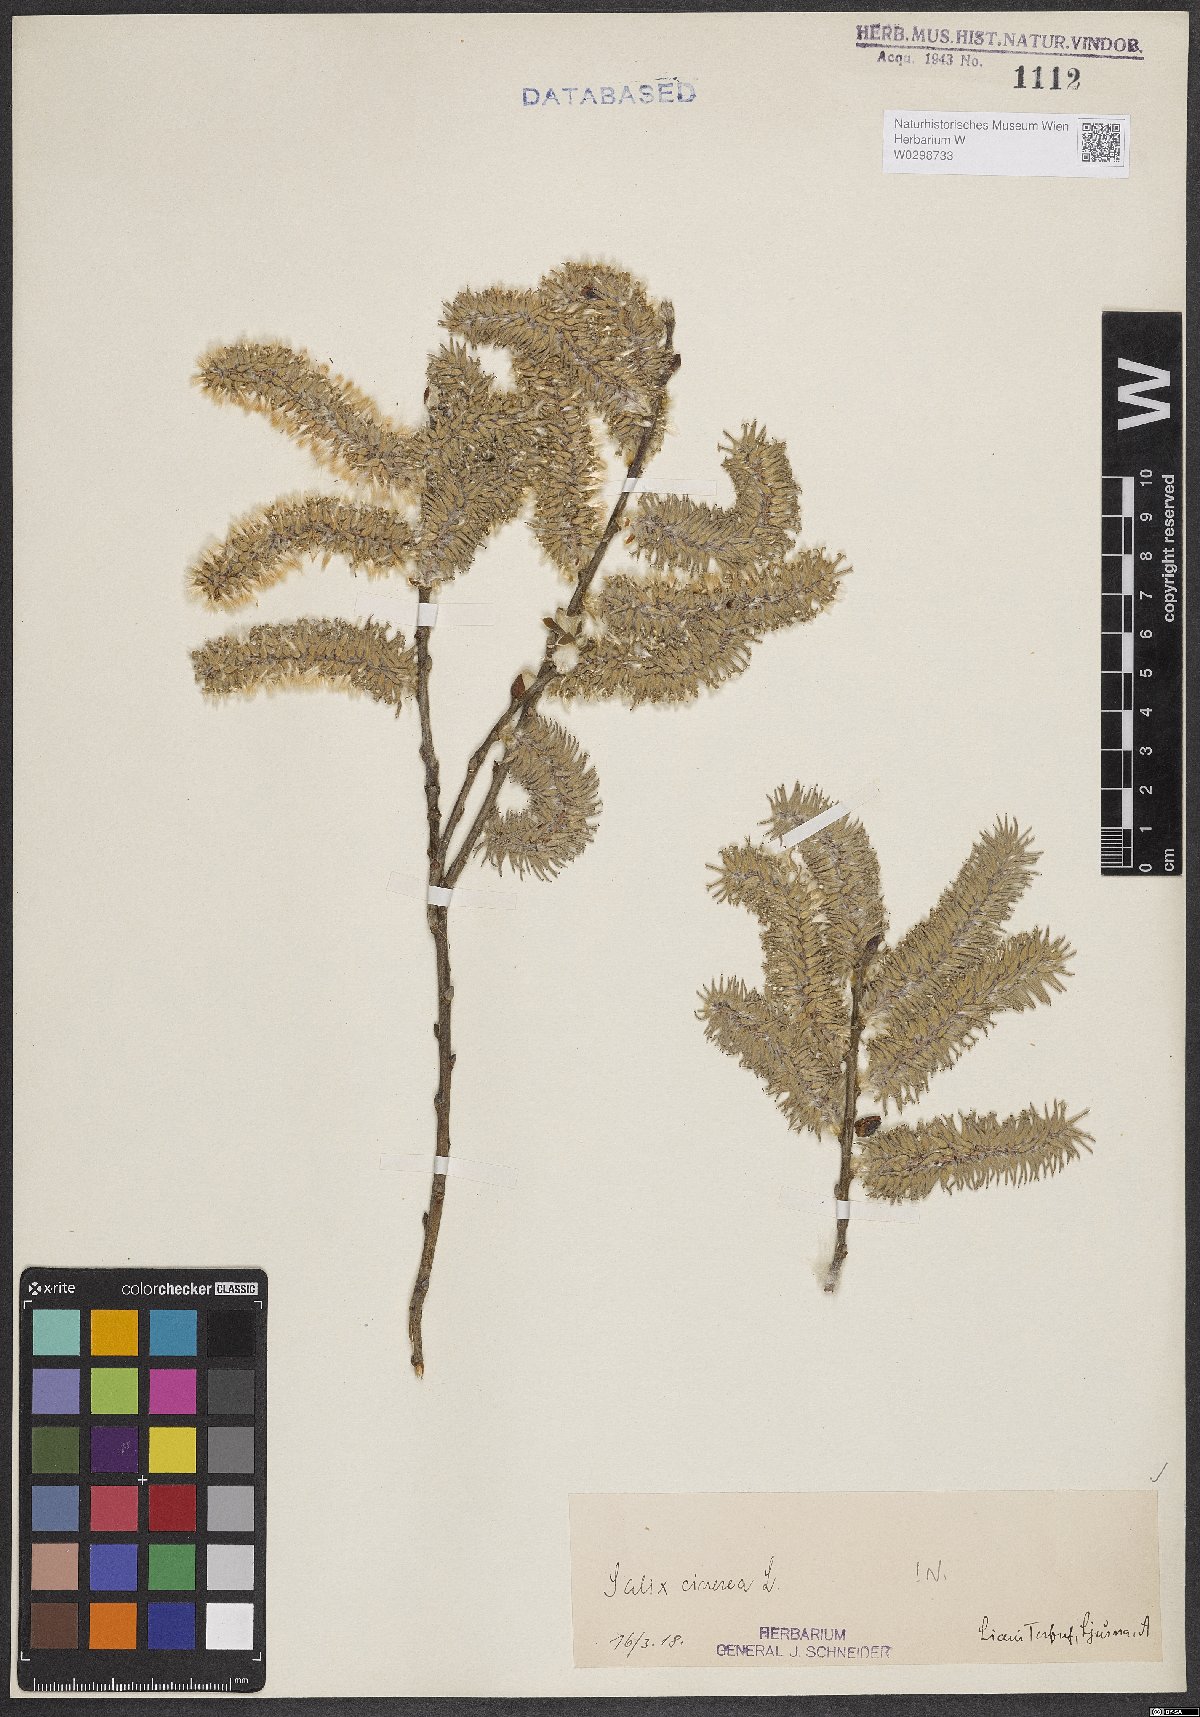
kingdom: Plantae
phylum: Tracheophyta
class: Magnoliopsida
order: Malpighiales
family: Salicaceae
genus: Salix
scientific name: Salix cinerea
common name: Common sallow
